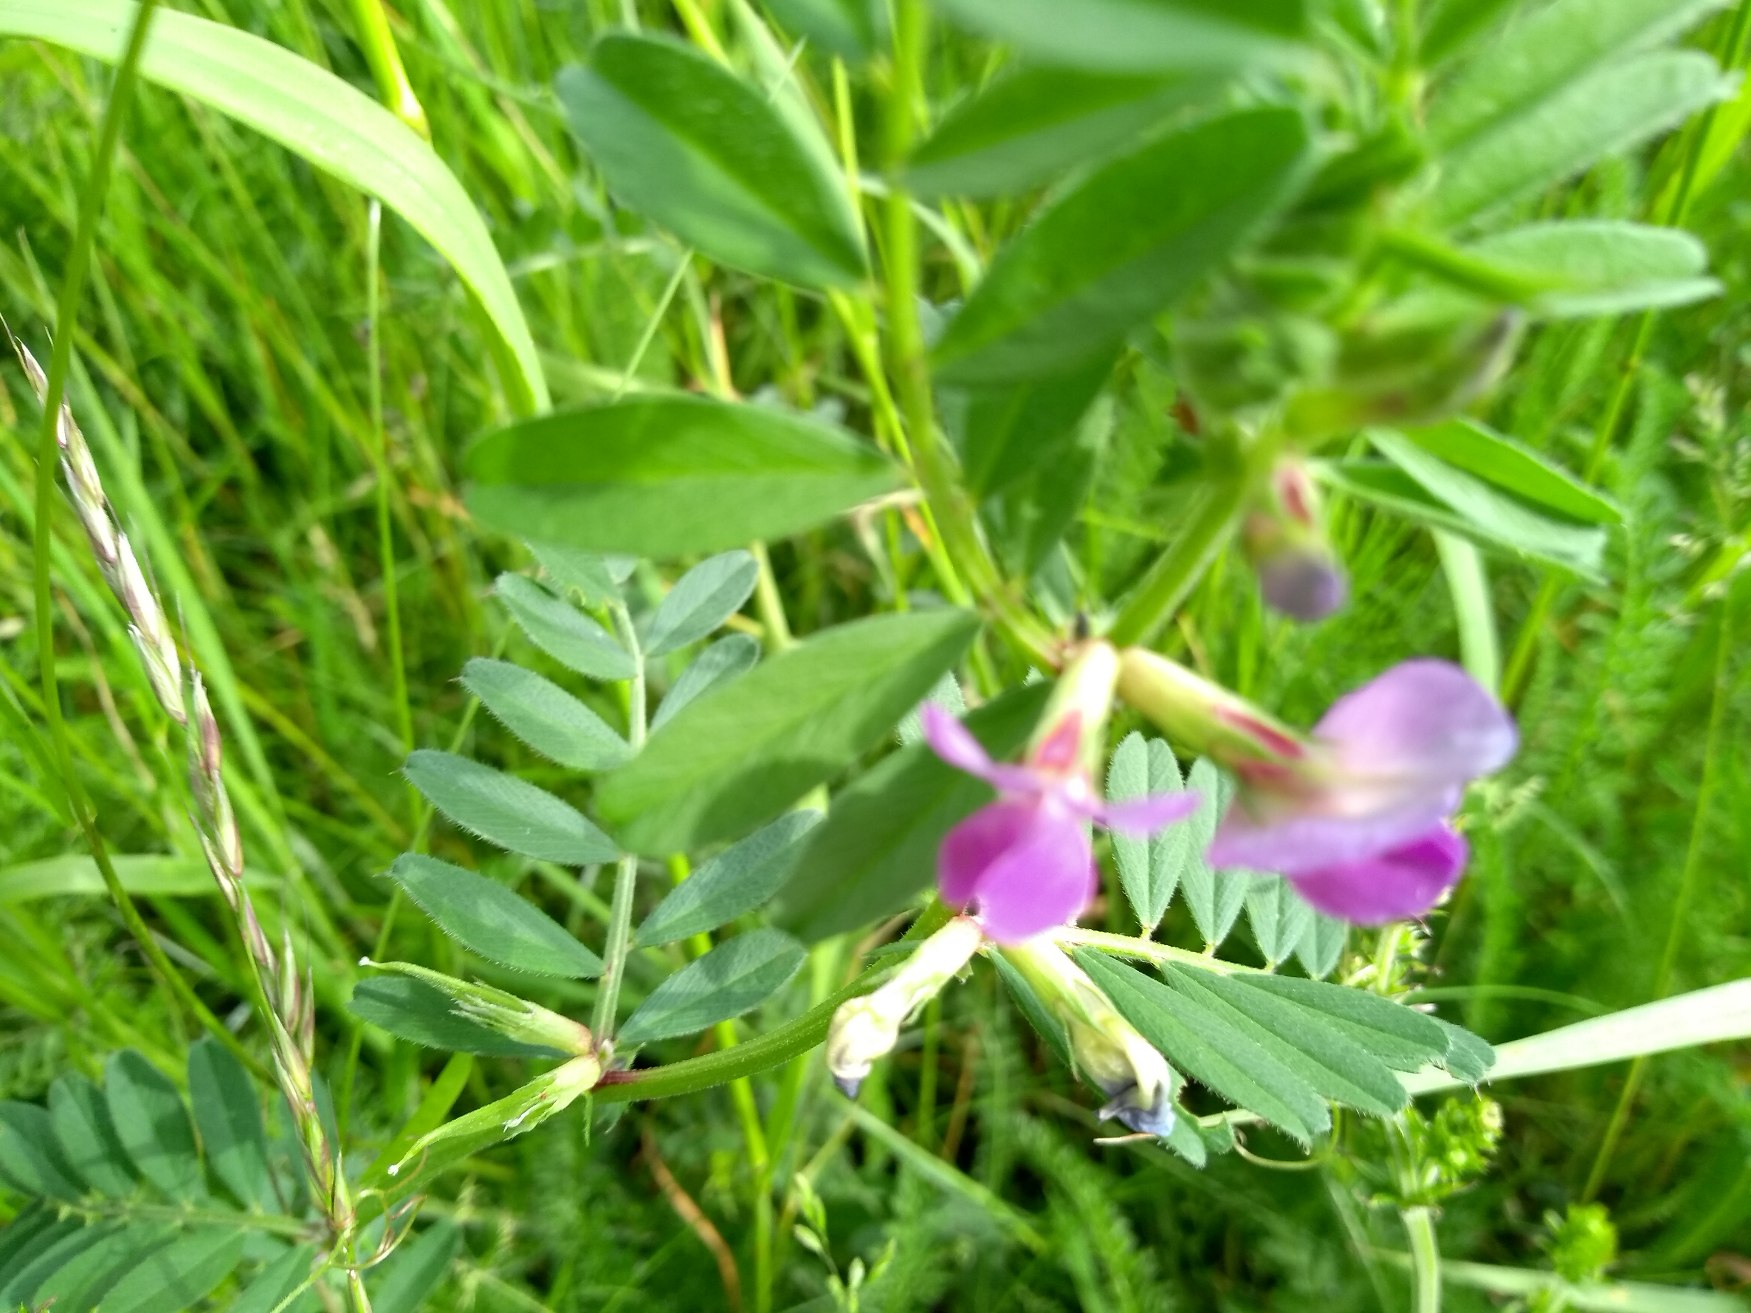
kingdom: Plantae
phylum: Tracheophyta
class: Magnoliopsida
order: Fabales
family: Fabaceae
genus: Vicia
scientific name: Vicia sativa
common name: Ager-vikke
